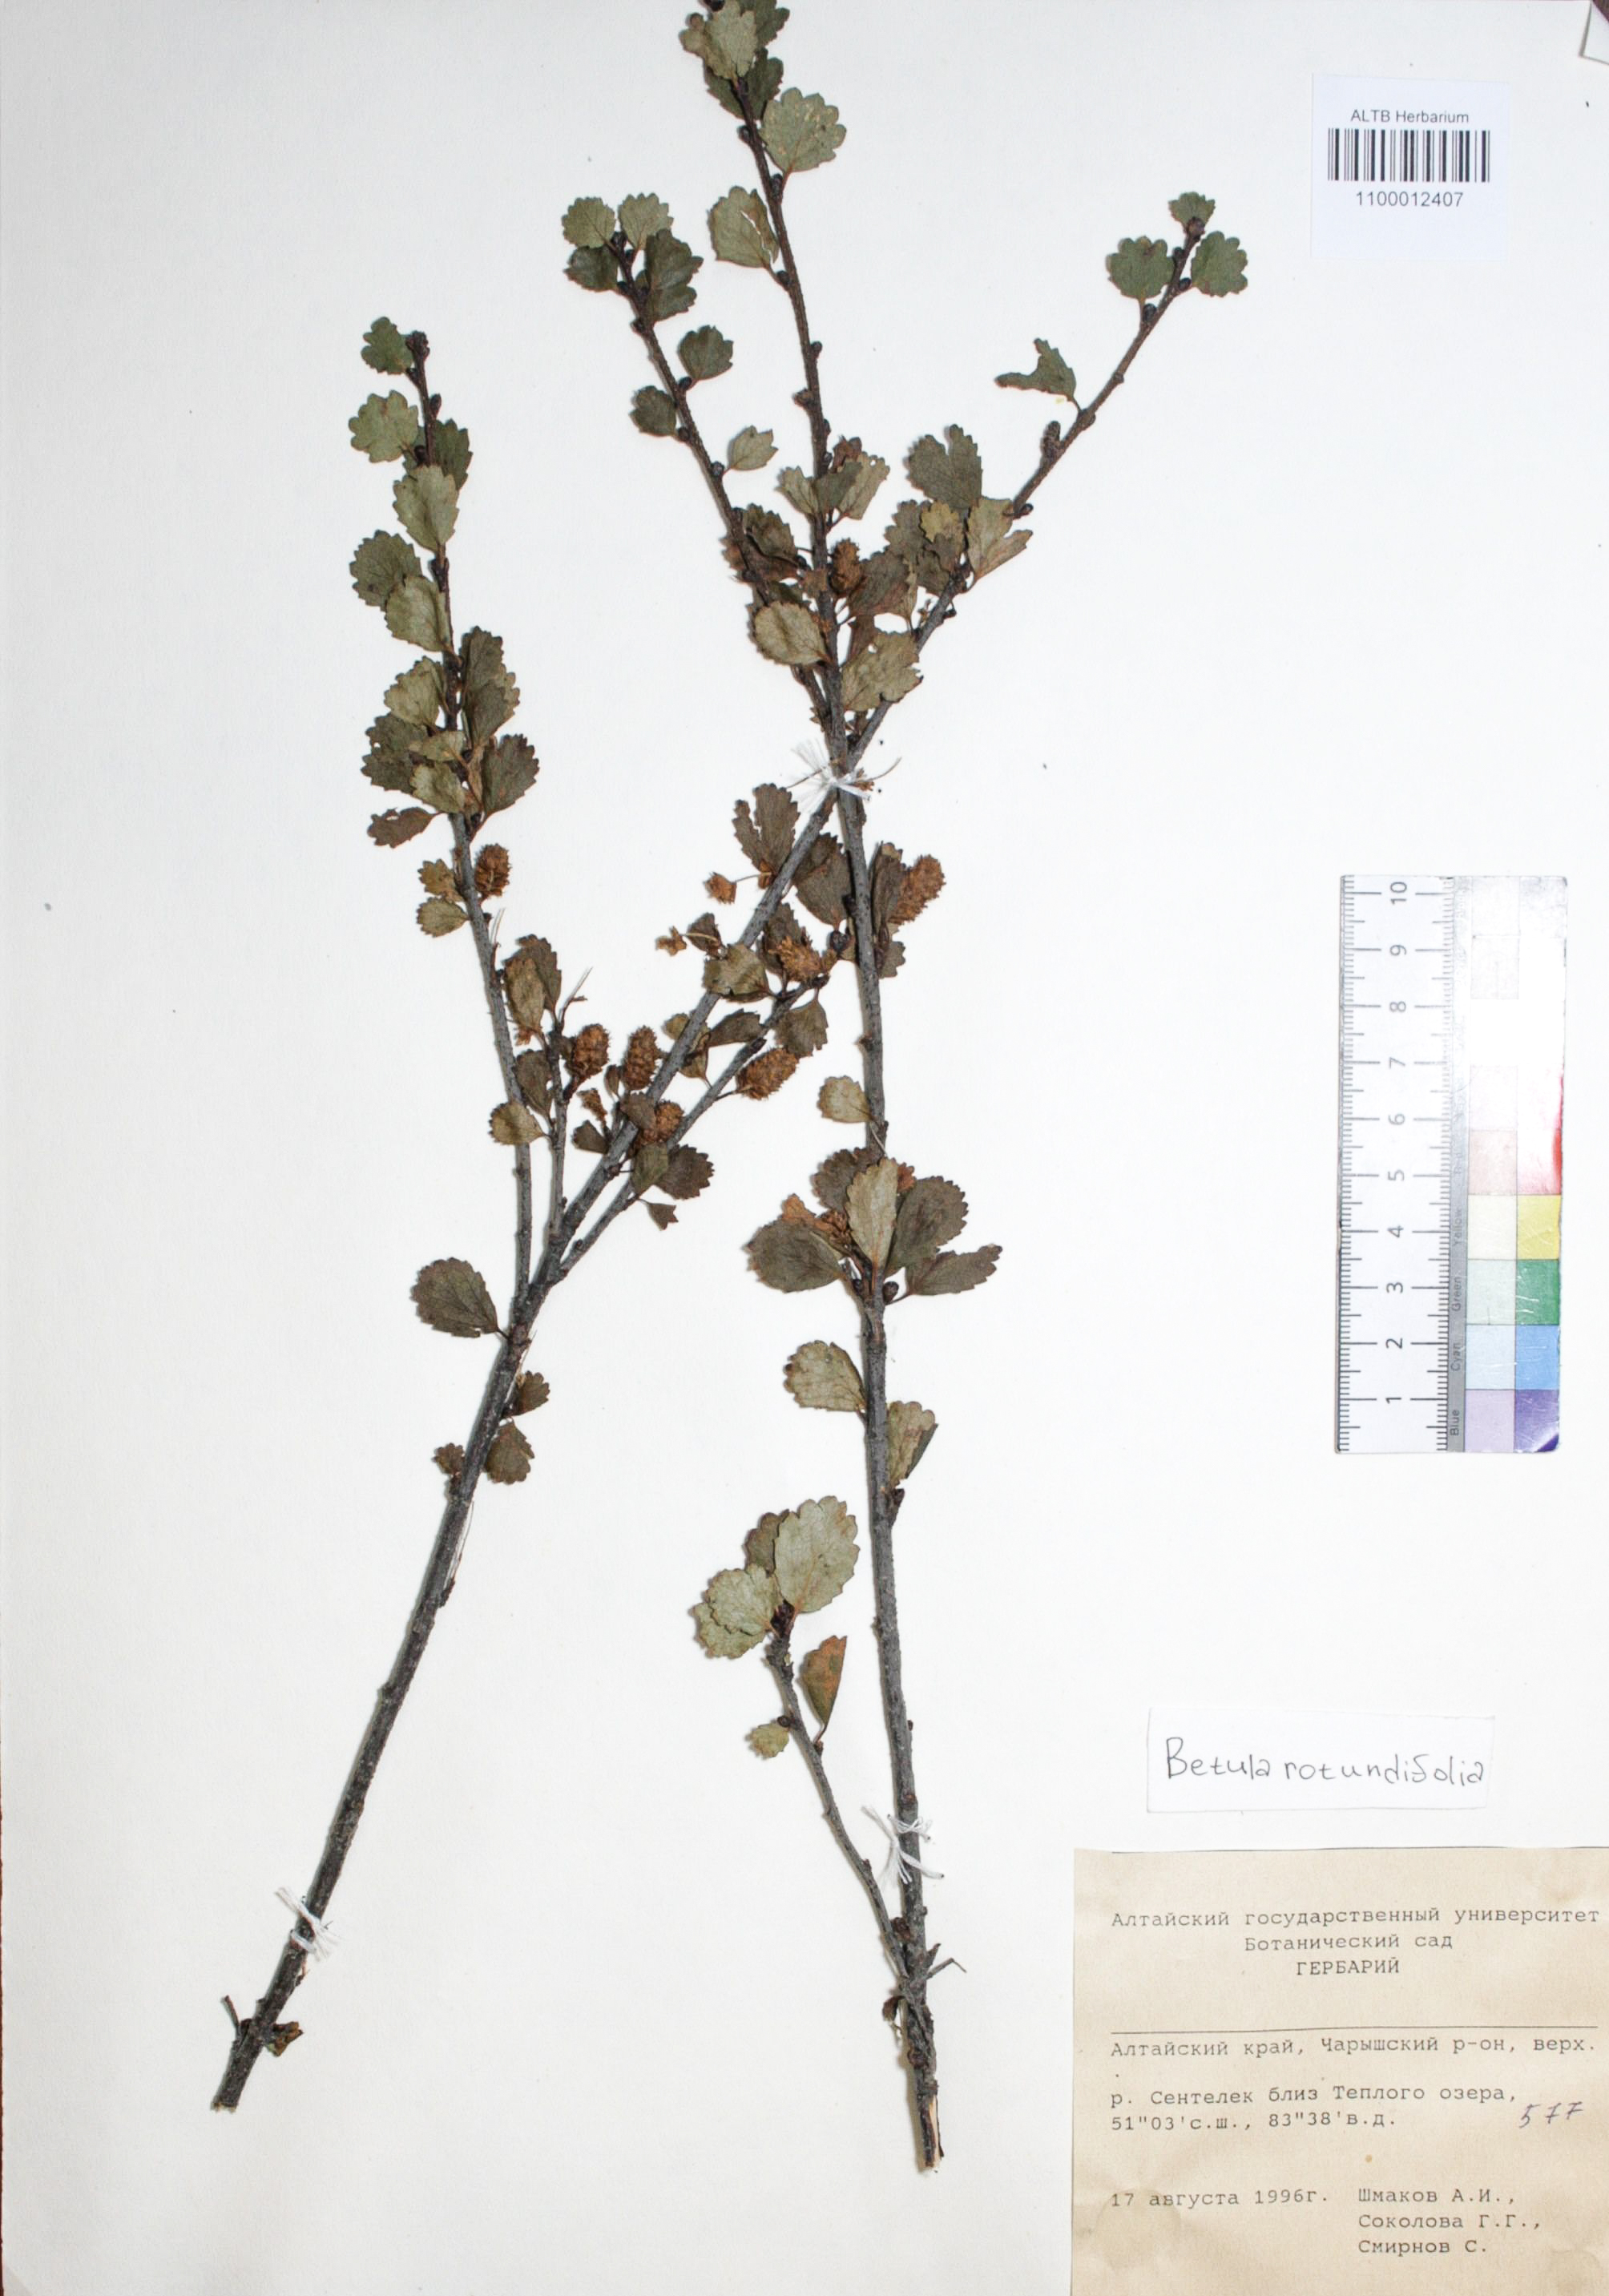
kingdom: Plantae
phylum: Tracheophyta
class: Magnoliopsida
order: Fagales
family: Betulaceae
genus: Betula
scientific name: Betula glandulosa
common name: Dwarf birch
